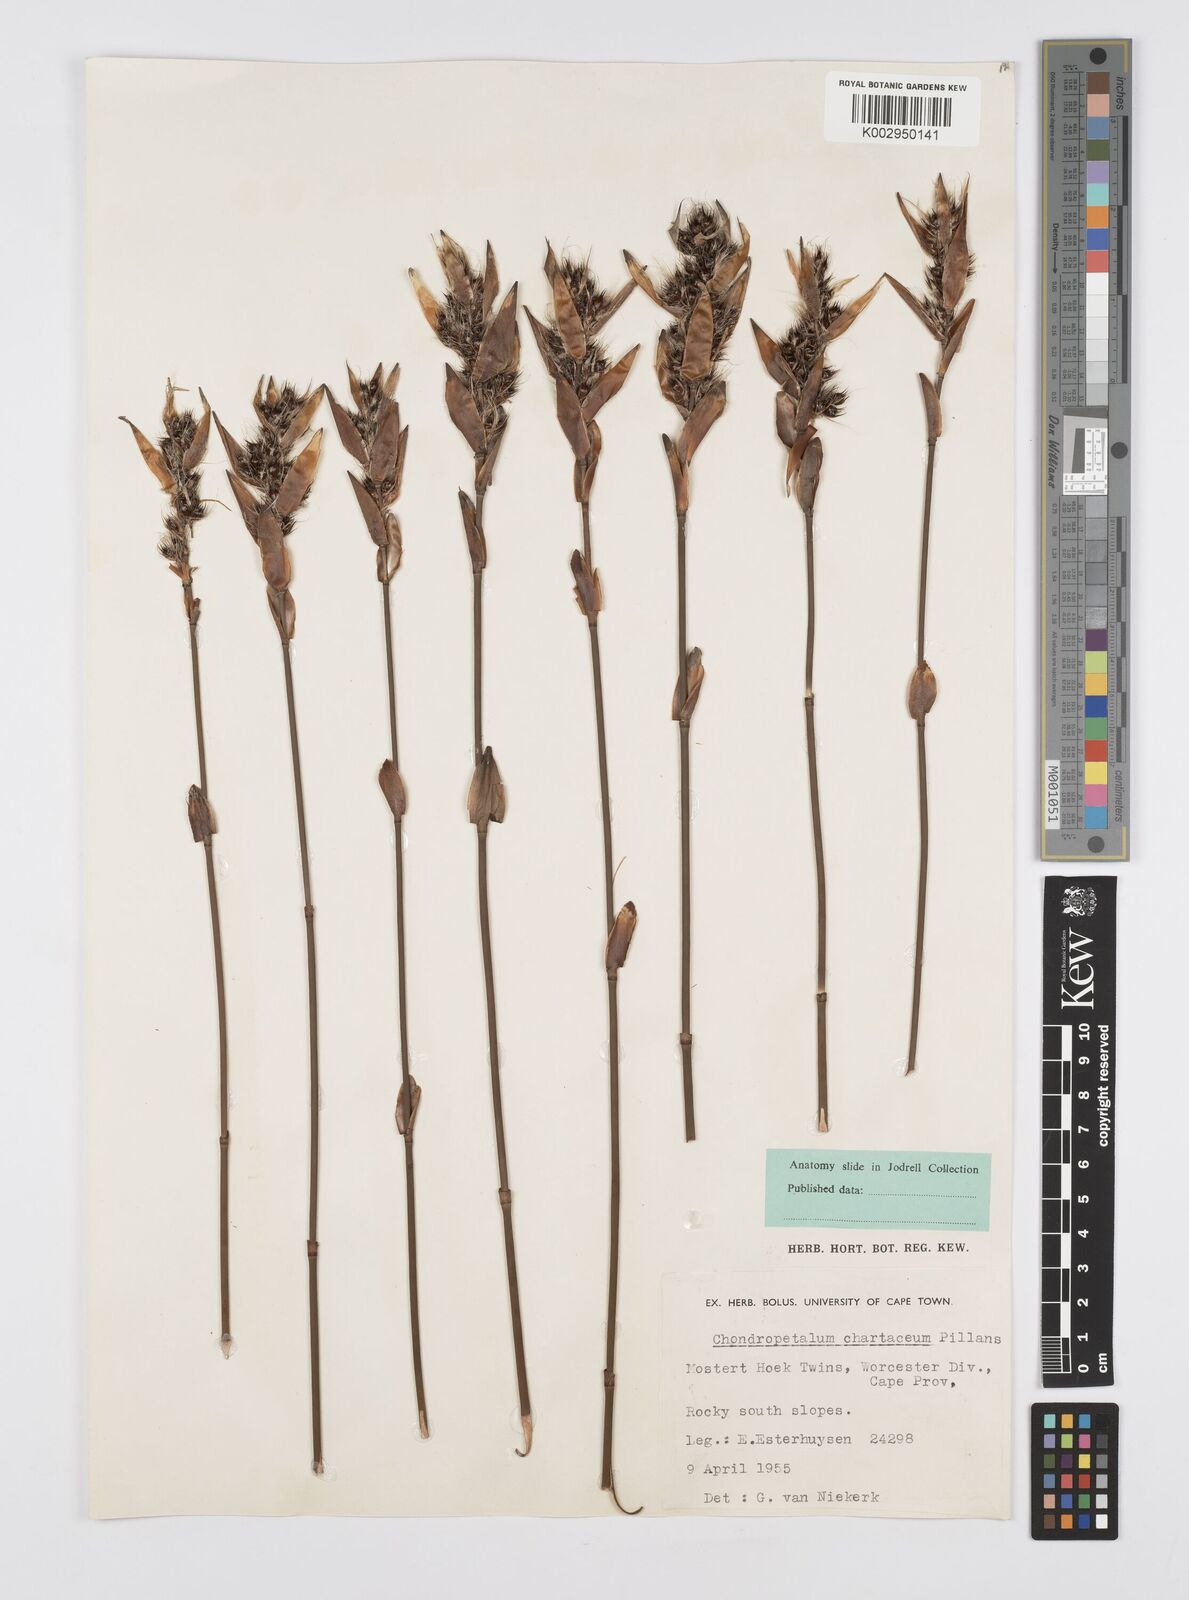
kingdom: Plantae
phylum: Tracheophyta
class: Liliopsida
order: Poales
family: Restionaceae
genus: Askidiosperma
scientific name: Askidiosperma chartaceum
